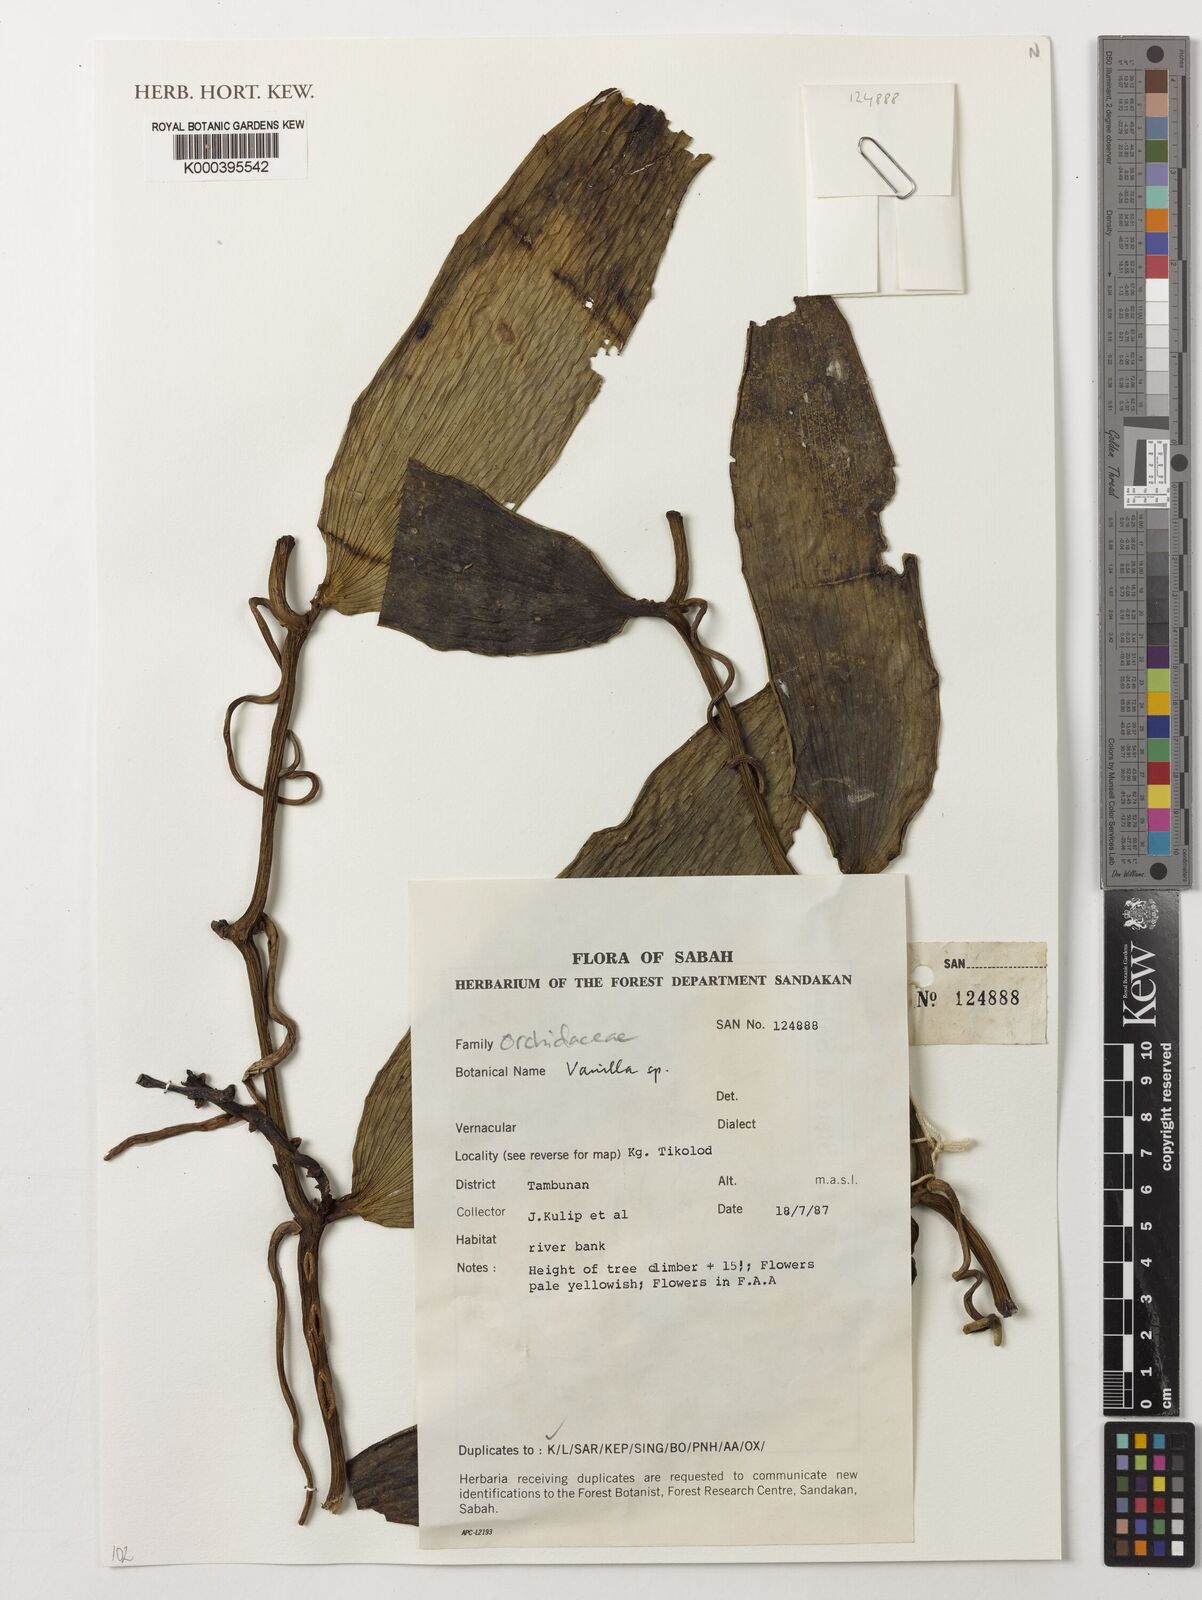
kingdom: Plantae
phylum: Tracheophyta
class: Liliopsida
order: Asparagales
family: Orchidaceae
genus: Vanilla
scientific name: Vanilla
